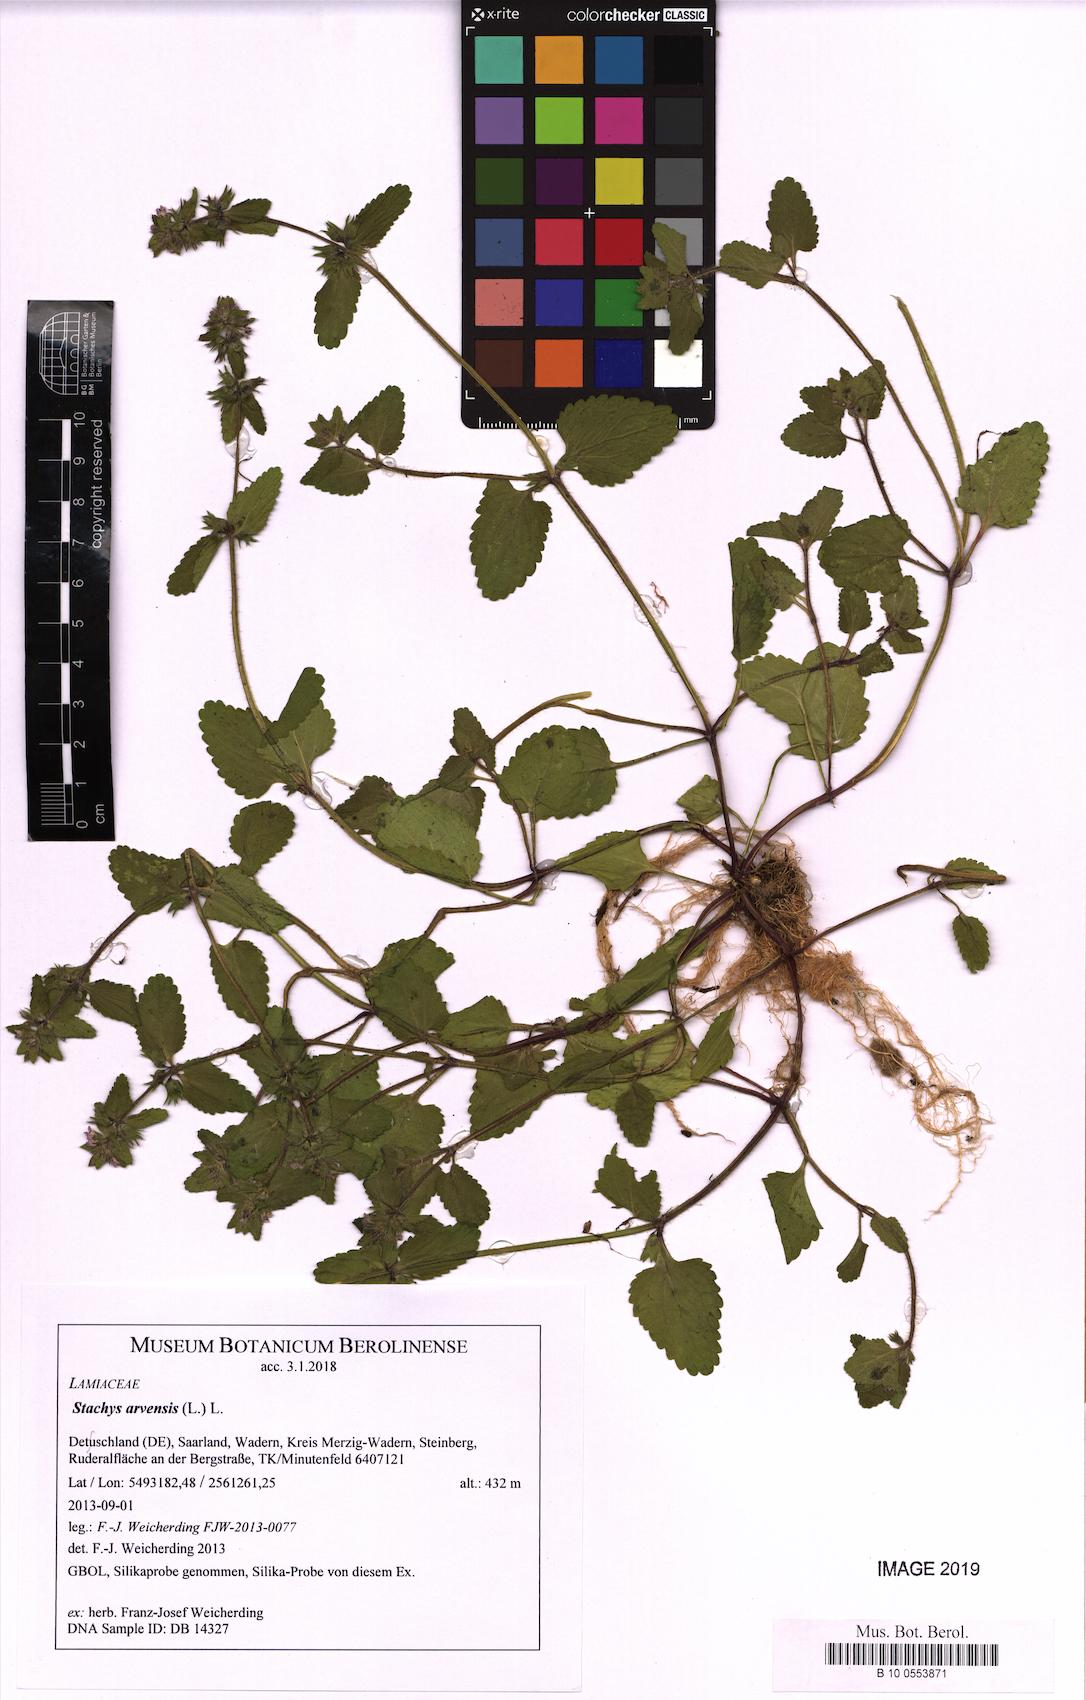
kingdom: Plantae
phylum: Tracheophyta
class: Magnoliopsida
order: Lamiales
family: Lamiaceae
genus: Stachys
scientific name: Stachys arvensis
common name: Field woundwort
